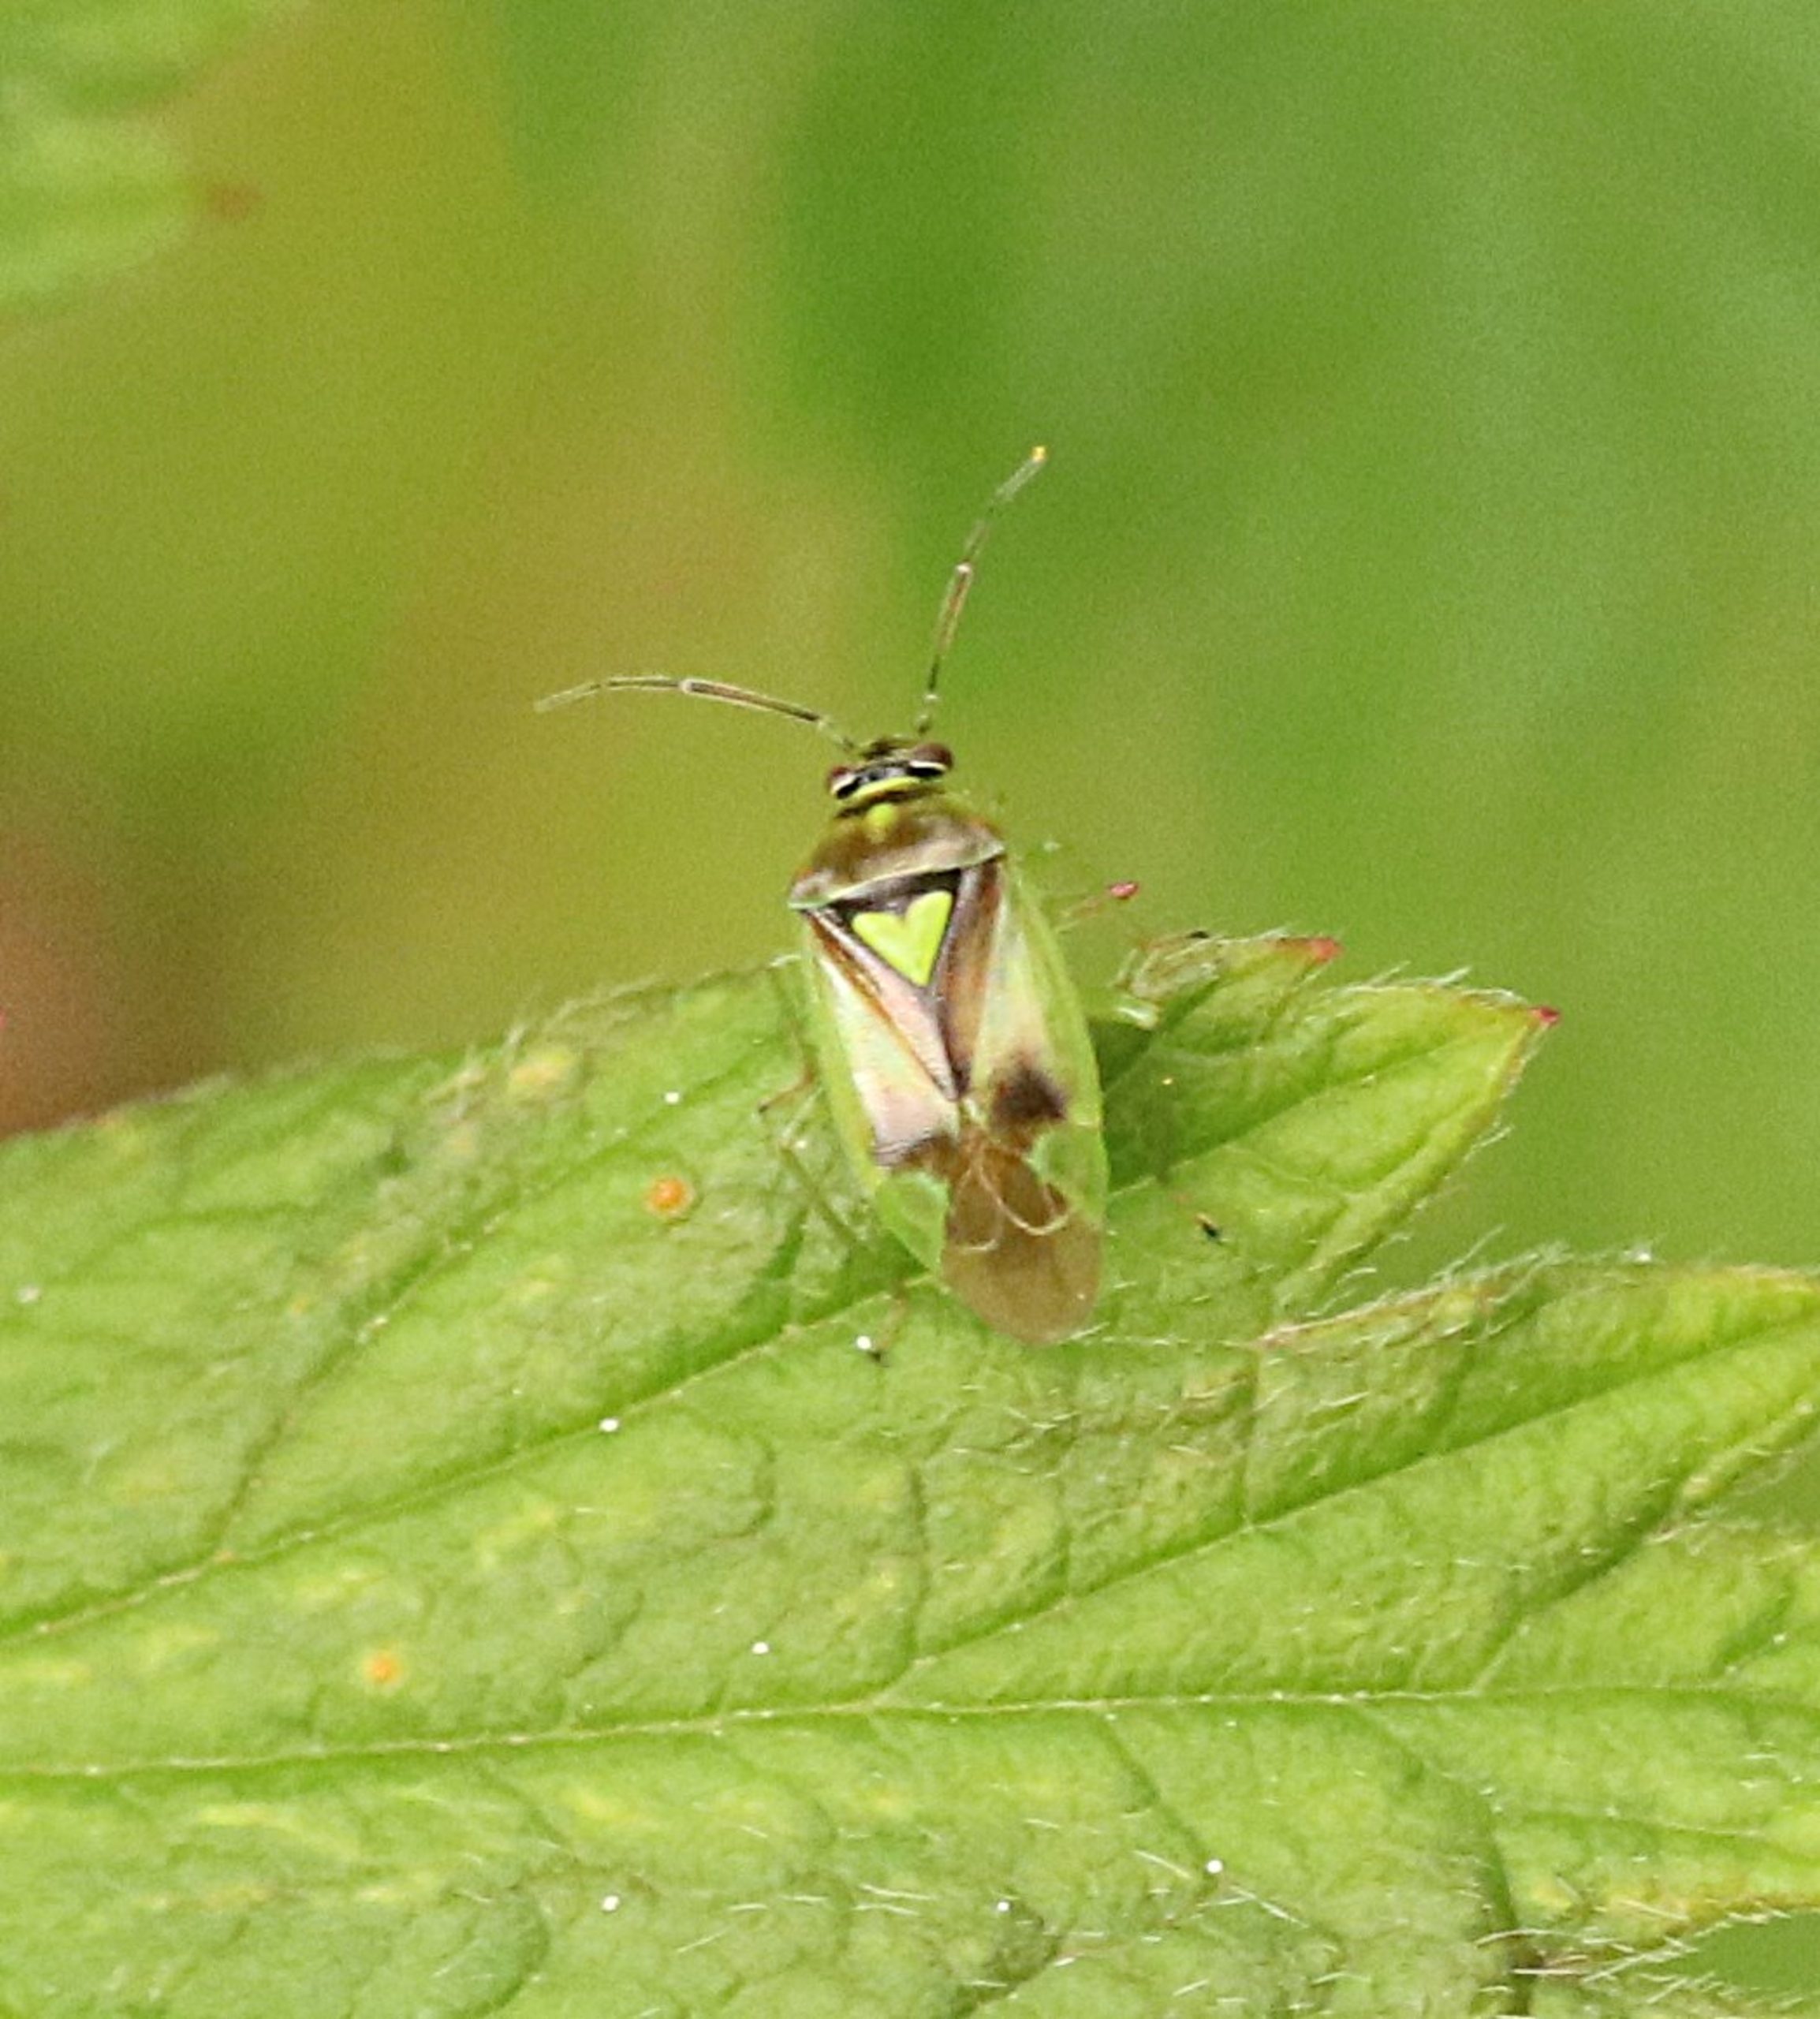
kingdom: Animalia
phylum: Arthropoda
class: Insecta
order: Hemiptera
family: Miridae
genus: Orthops
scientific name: Orthops campestris
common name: Skærmplantetæge
